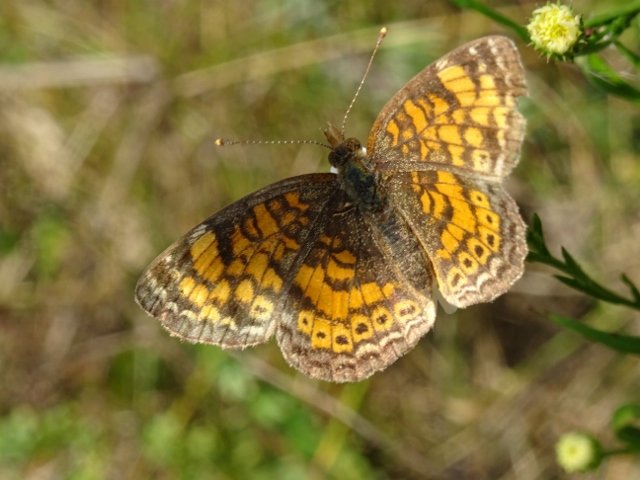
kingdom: Animalia
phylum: Arthropoda
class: Insecta
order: Lepidoptera
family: Nymphalidae
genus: Phyciodes
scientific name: Phyciodes tharos
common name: Northern Crescent
